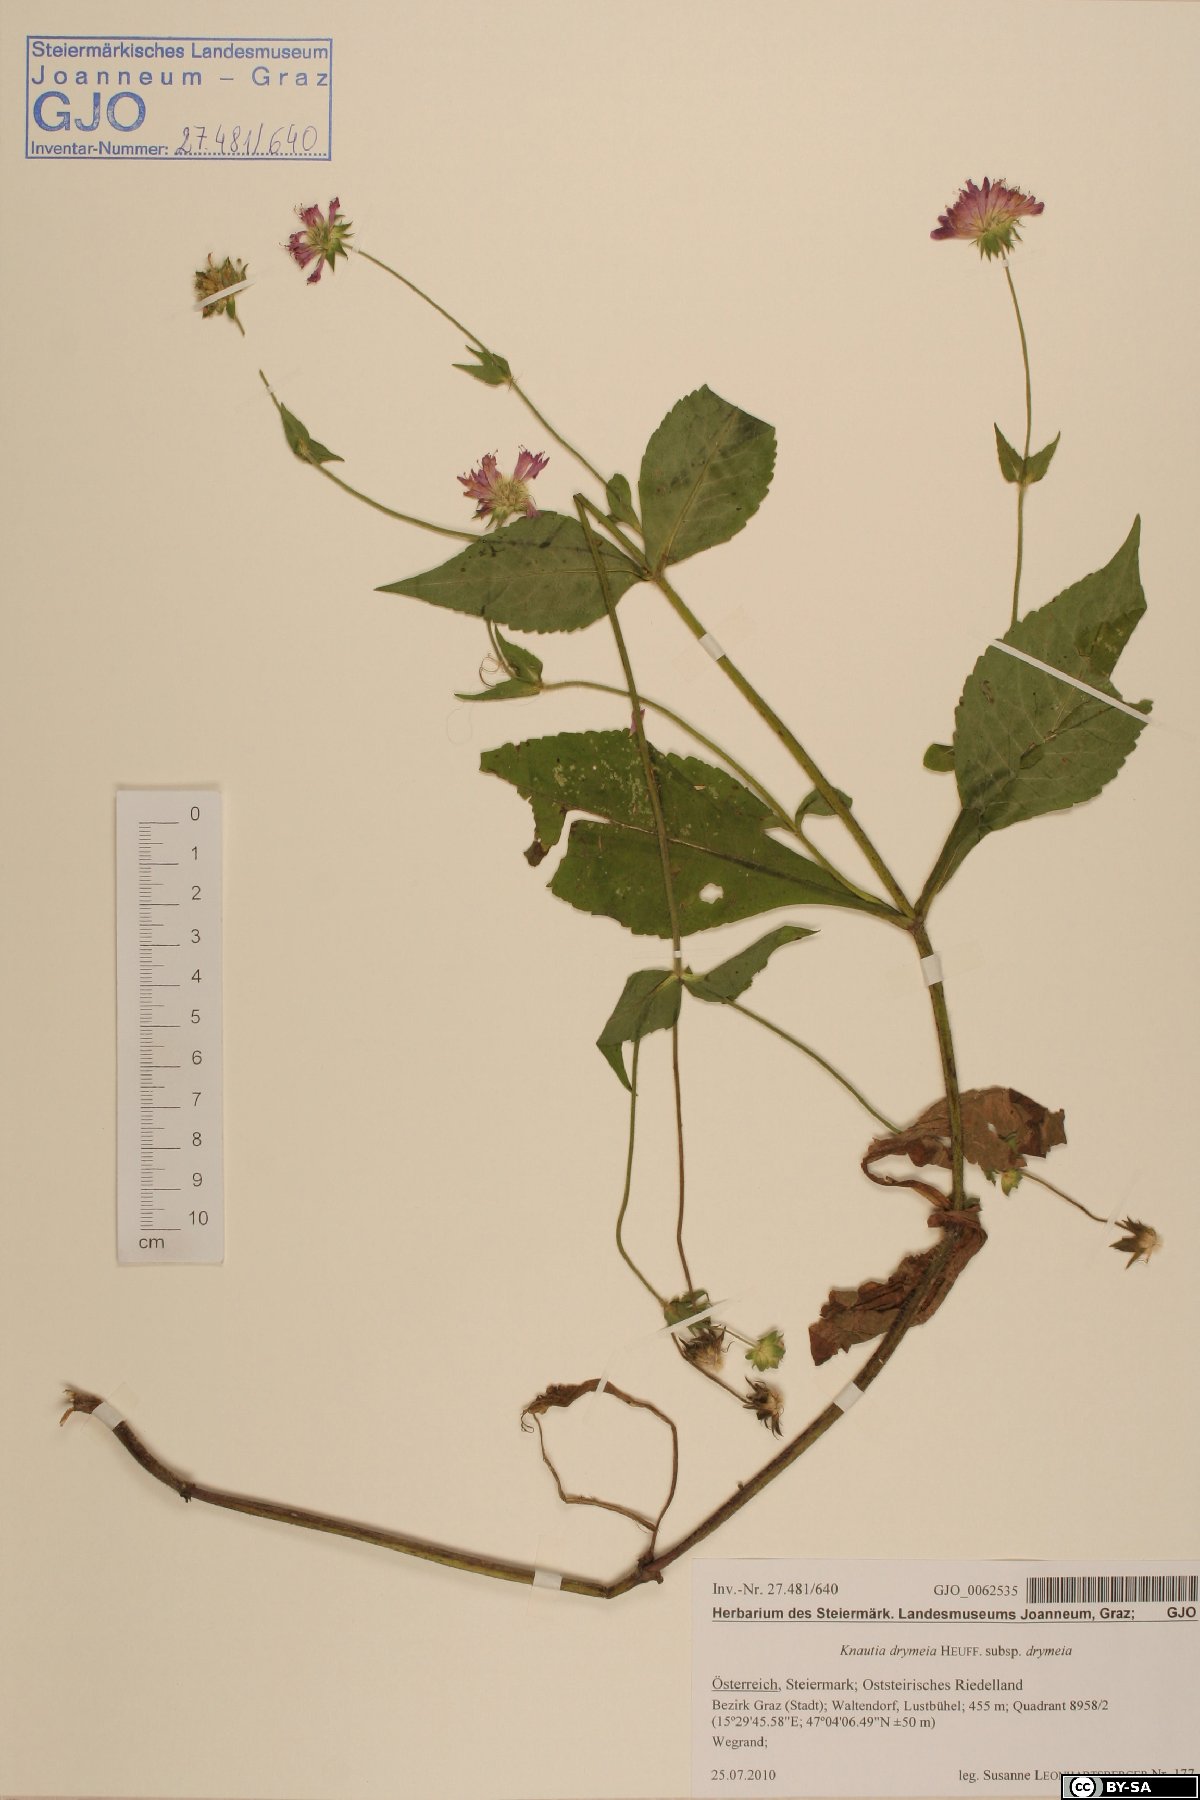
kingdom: Plantae
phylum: Tracheophyta
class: Magnoliopsida
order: Dipsacales
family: Caprifoliaceae
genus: Knautia
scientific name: Knautia drymeia
